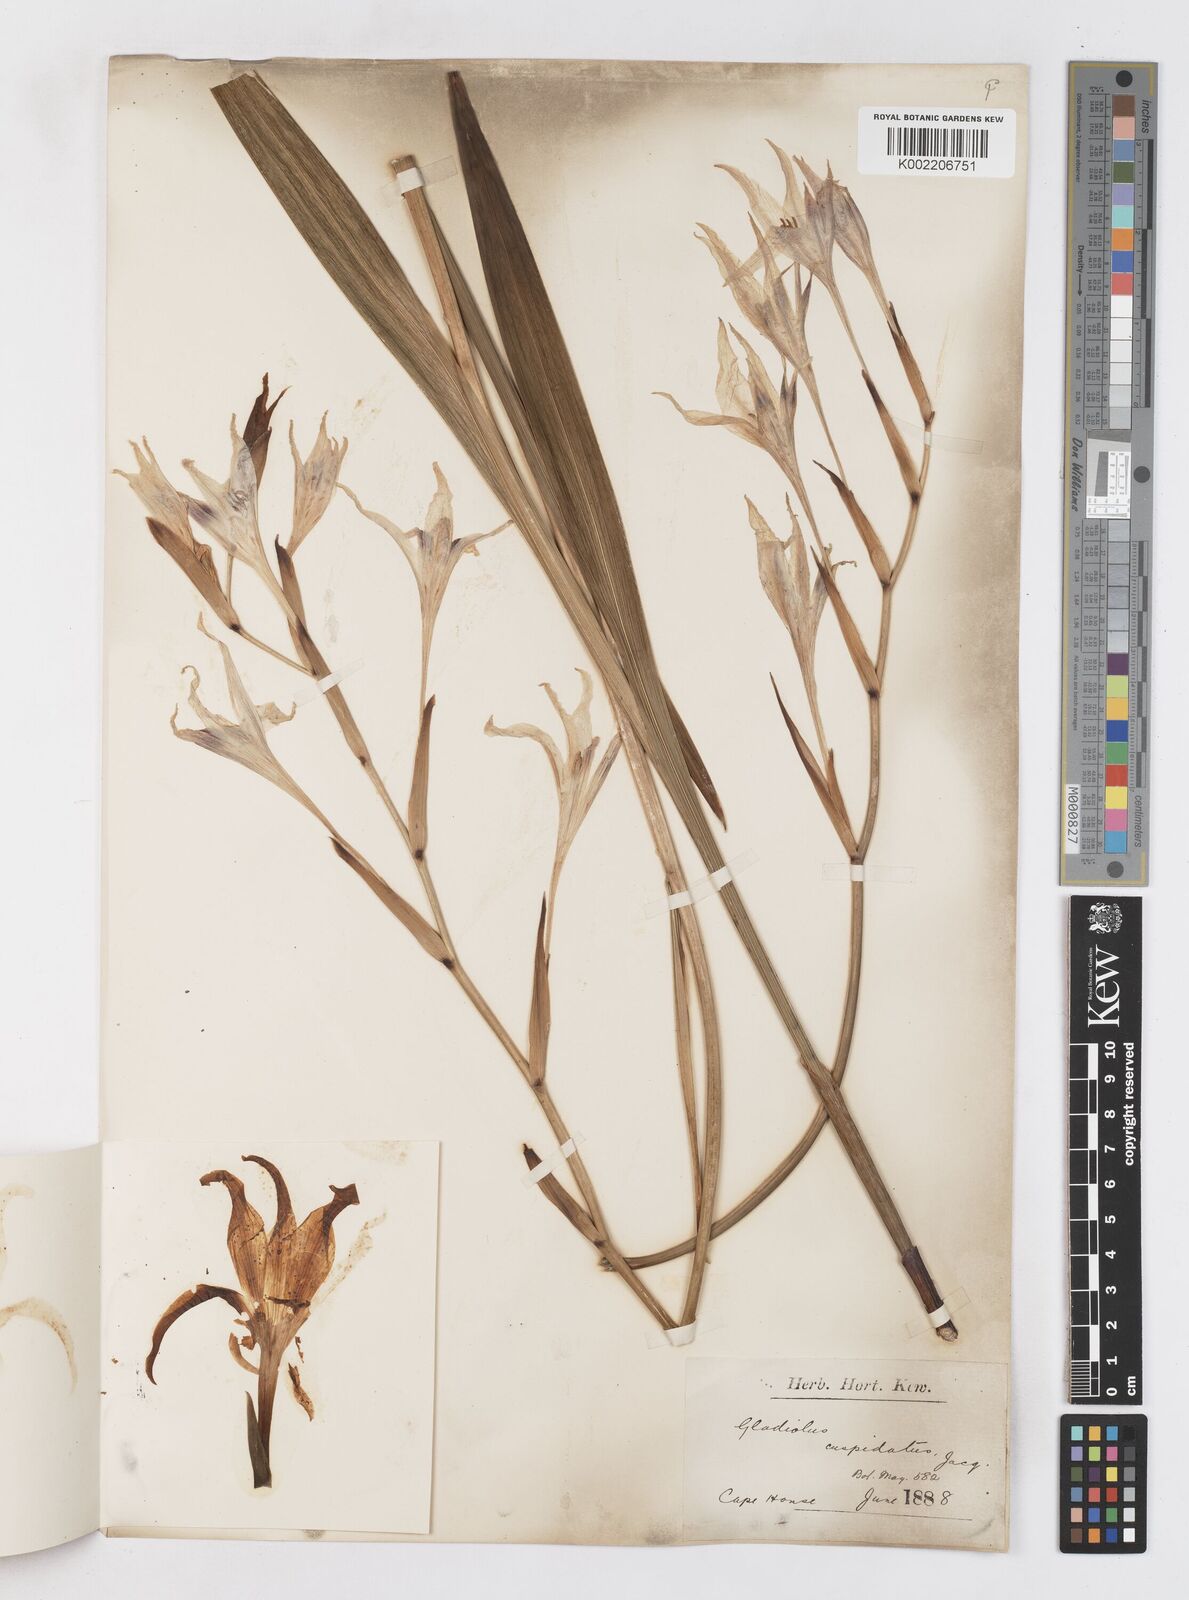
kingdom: Plantae
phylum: Tracheophyta
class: Liliopsida
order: Asparagales
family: Iridaceae
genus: Gladiolus
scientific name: Gladiolus undulatus
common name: Large painted-lady
